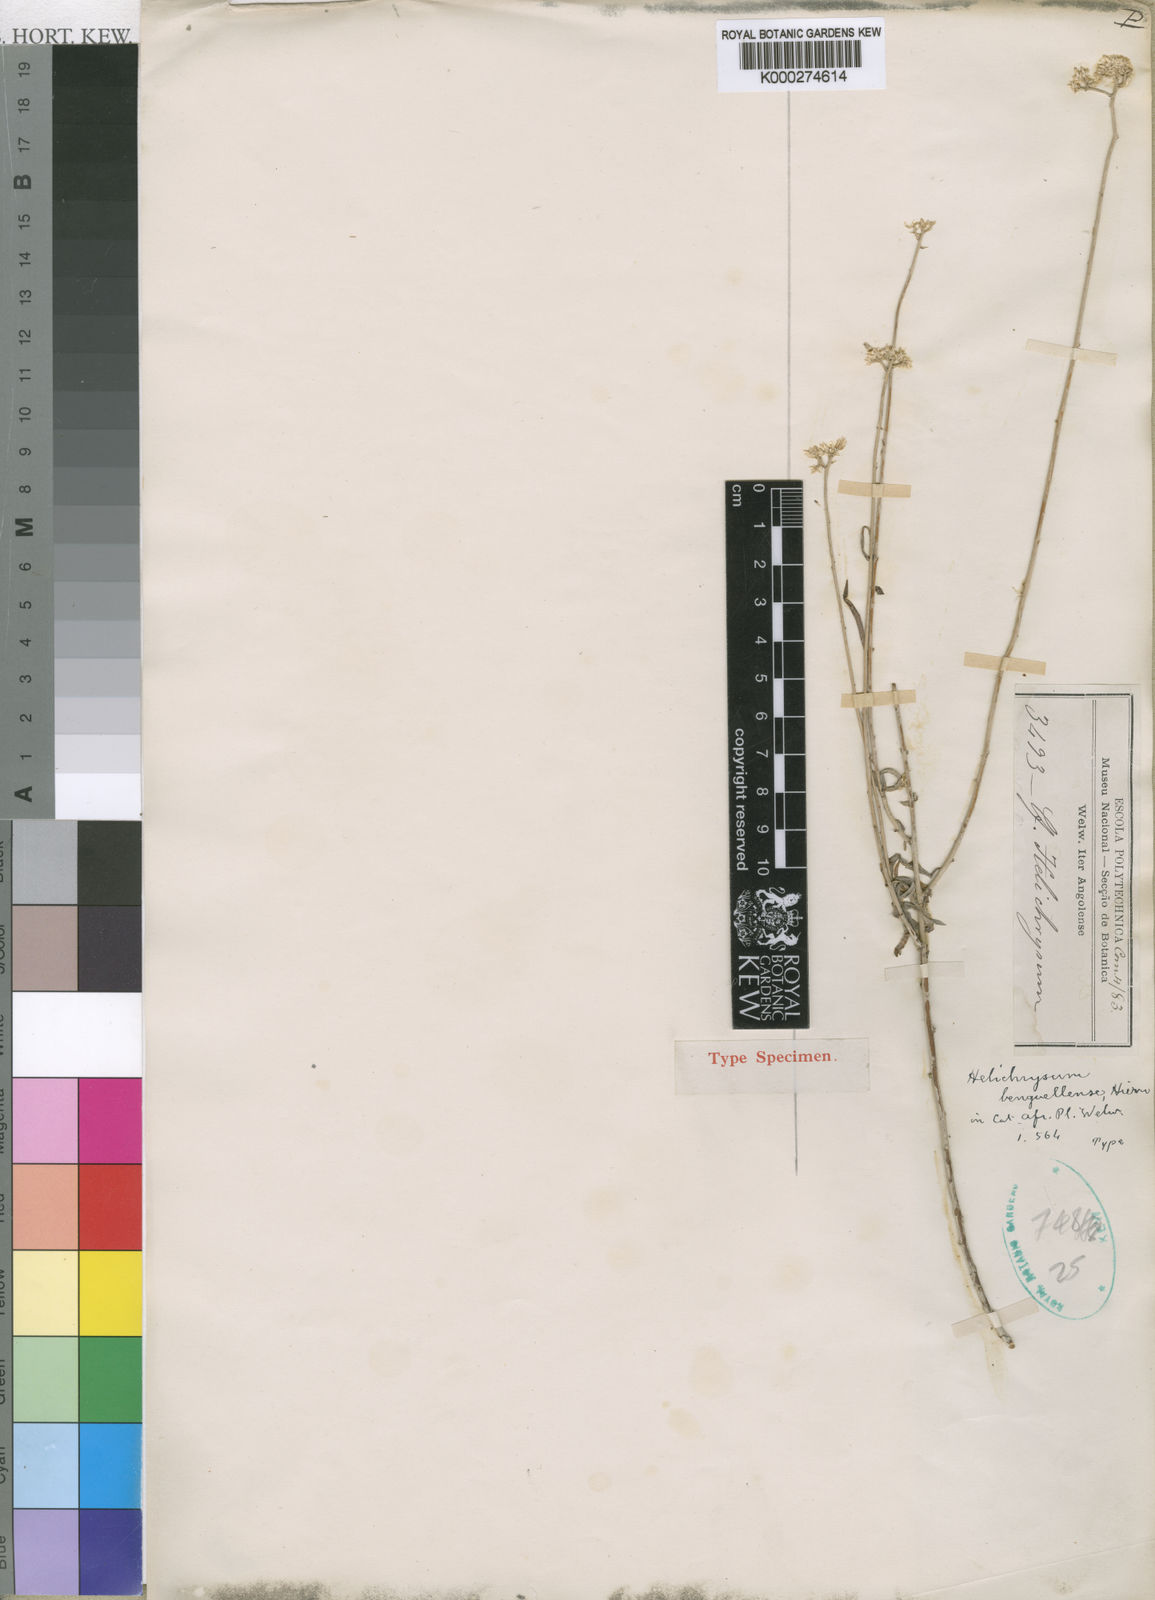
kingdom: Plantae
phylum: Tracheophyta
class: Magnoliopsida
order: Asterales
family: Asteraceae
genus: Helichrysum
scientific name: Helichrysum benguellense
